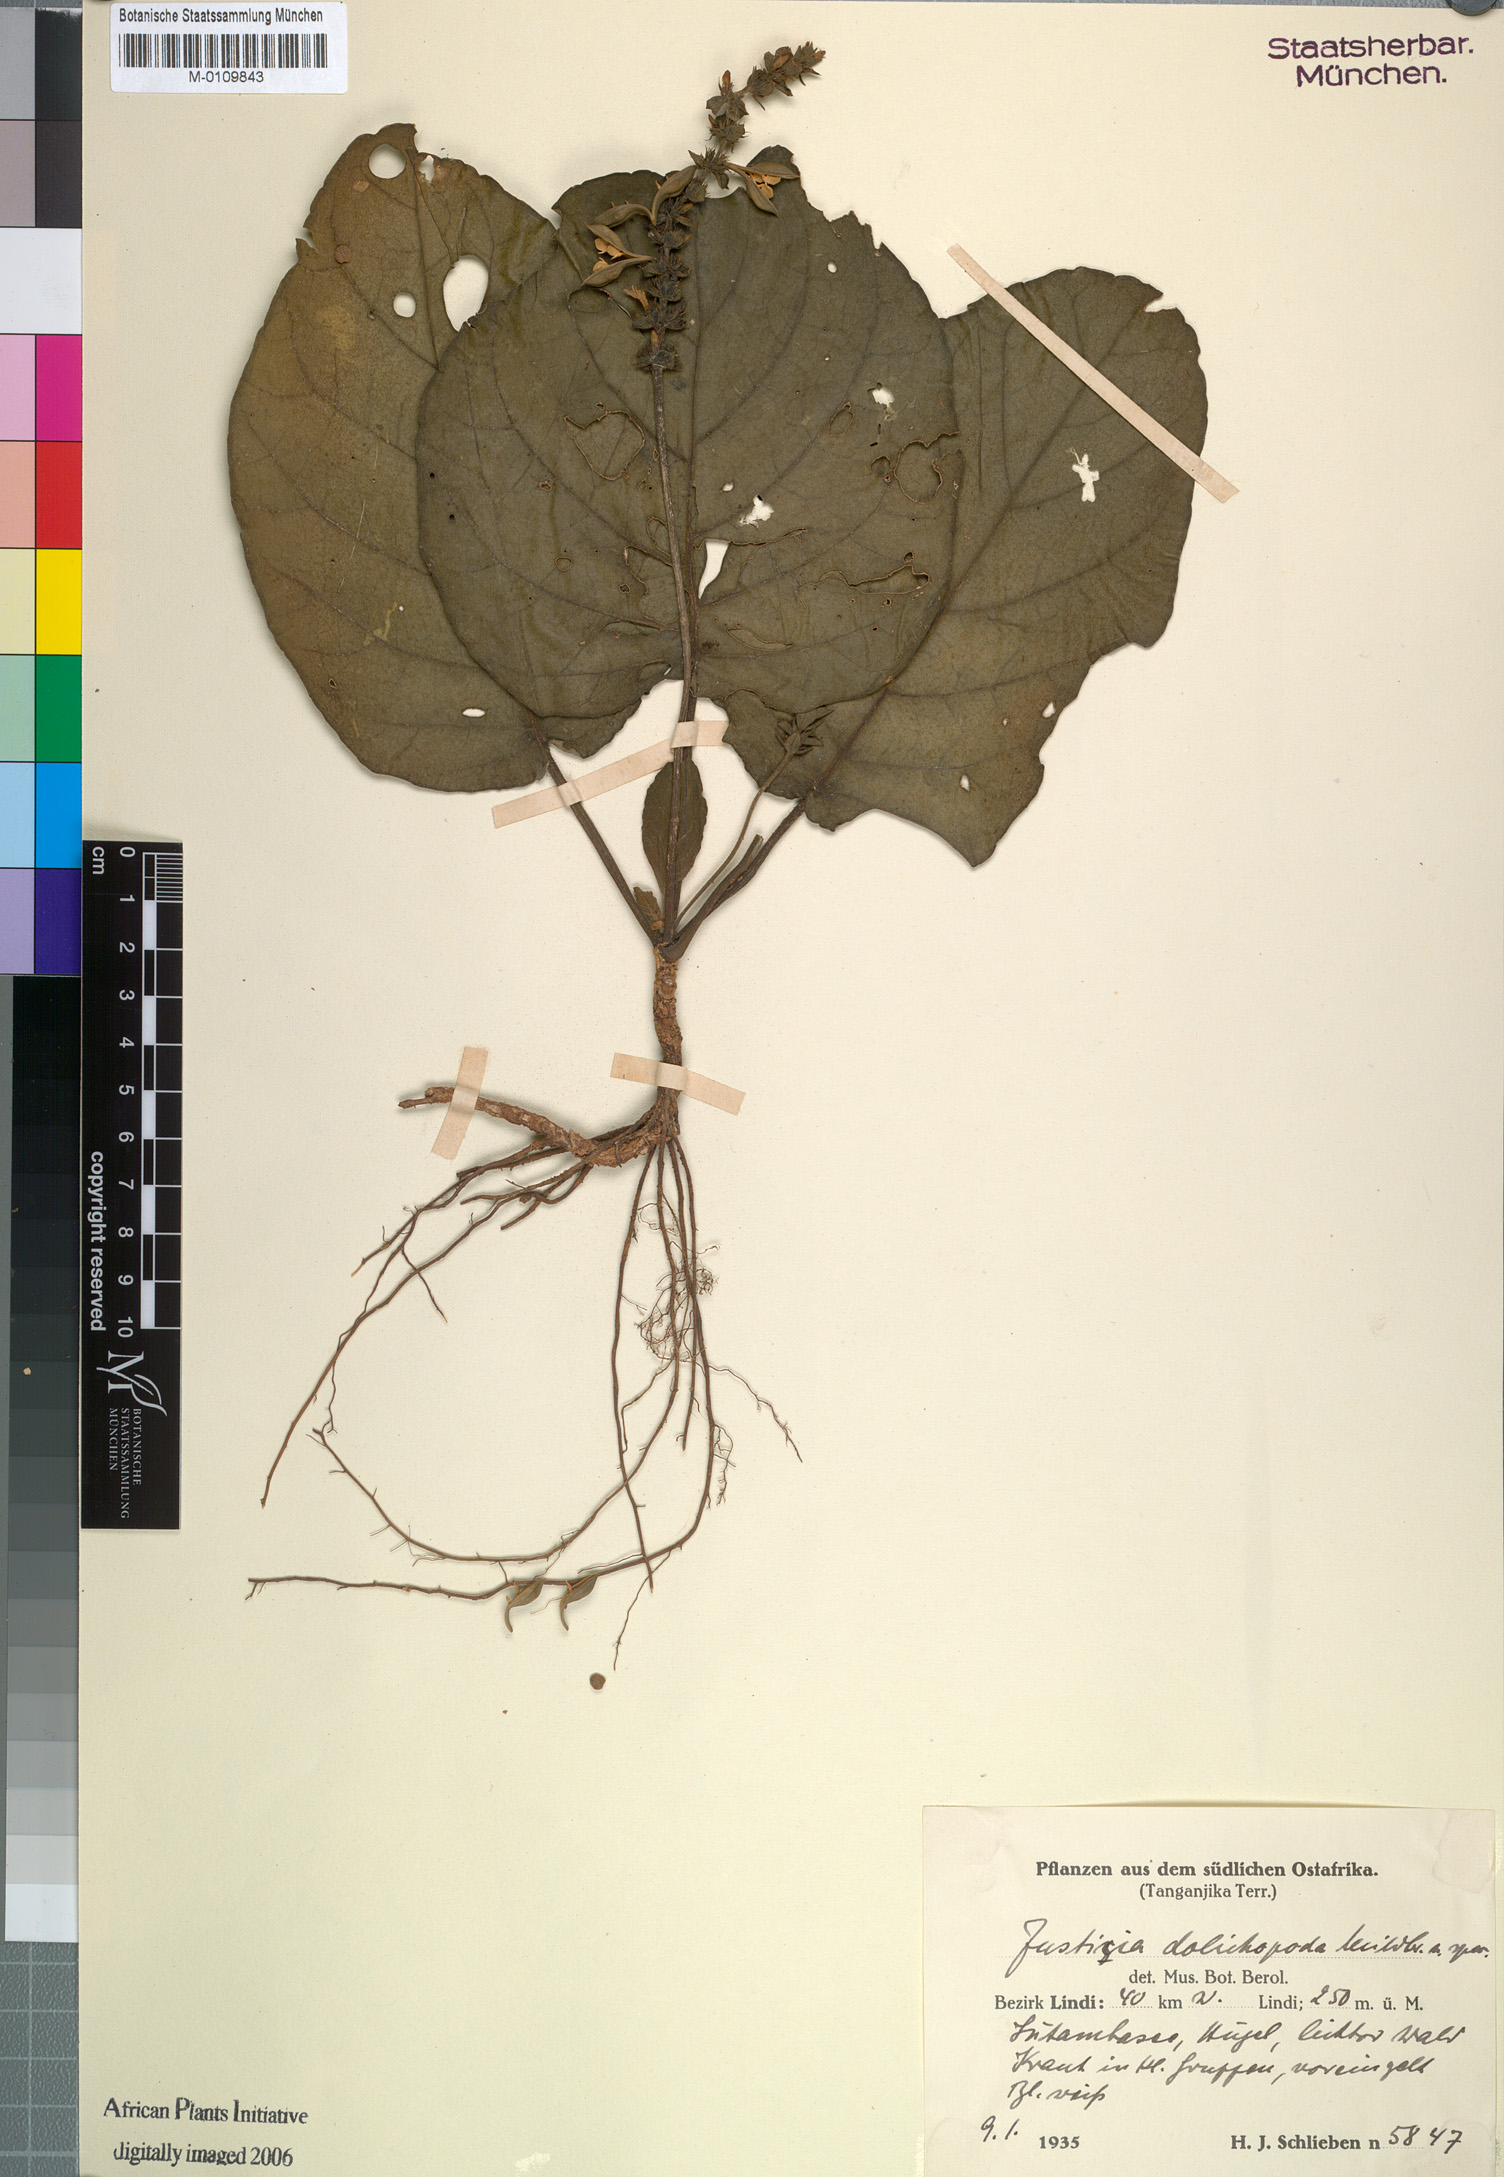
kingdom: Plantae
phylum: Tracheophyta
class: Magnoliopsida
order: Lamiales
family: Acanthaceae
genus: Nicoteba
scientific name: Nicoteba fittonioides
